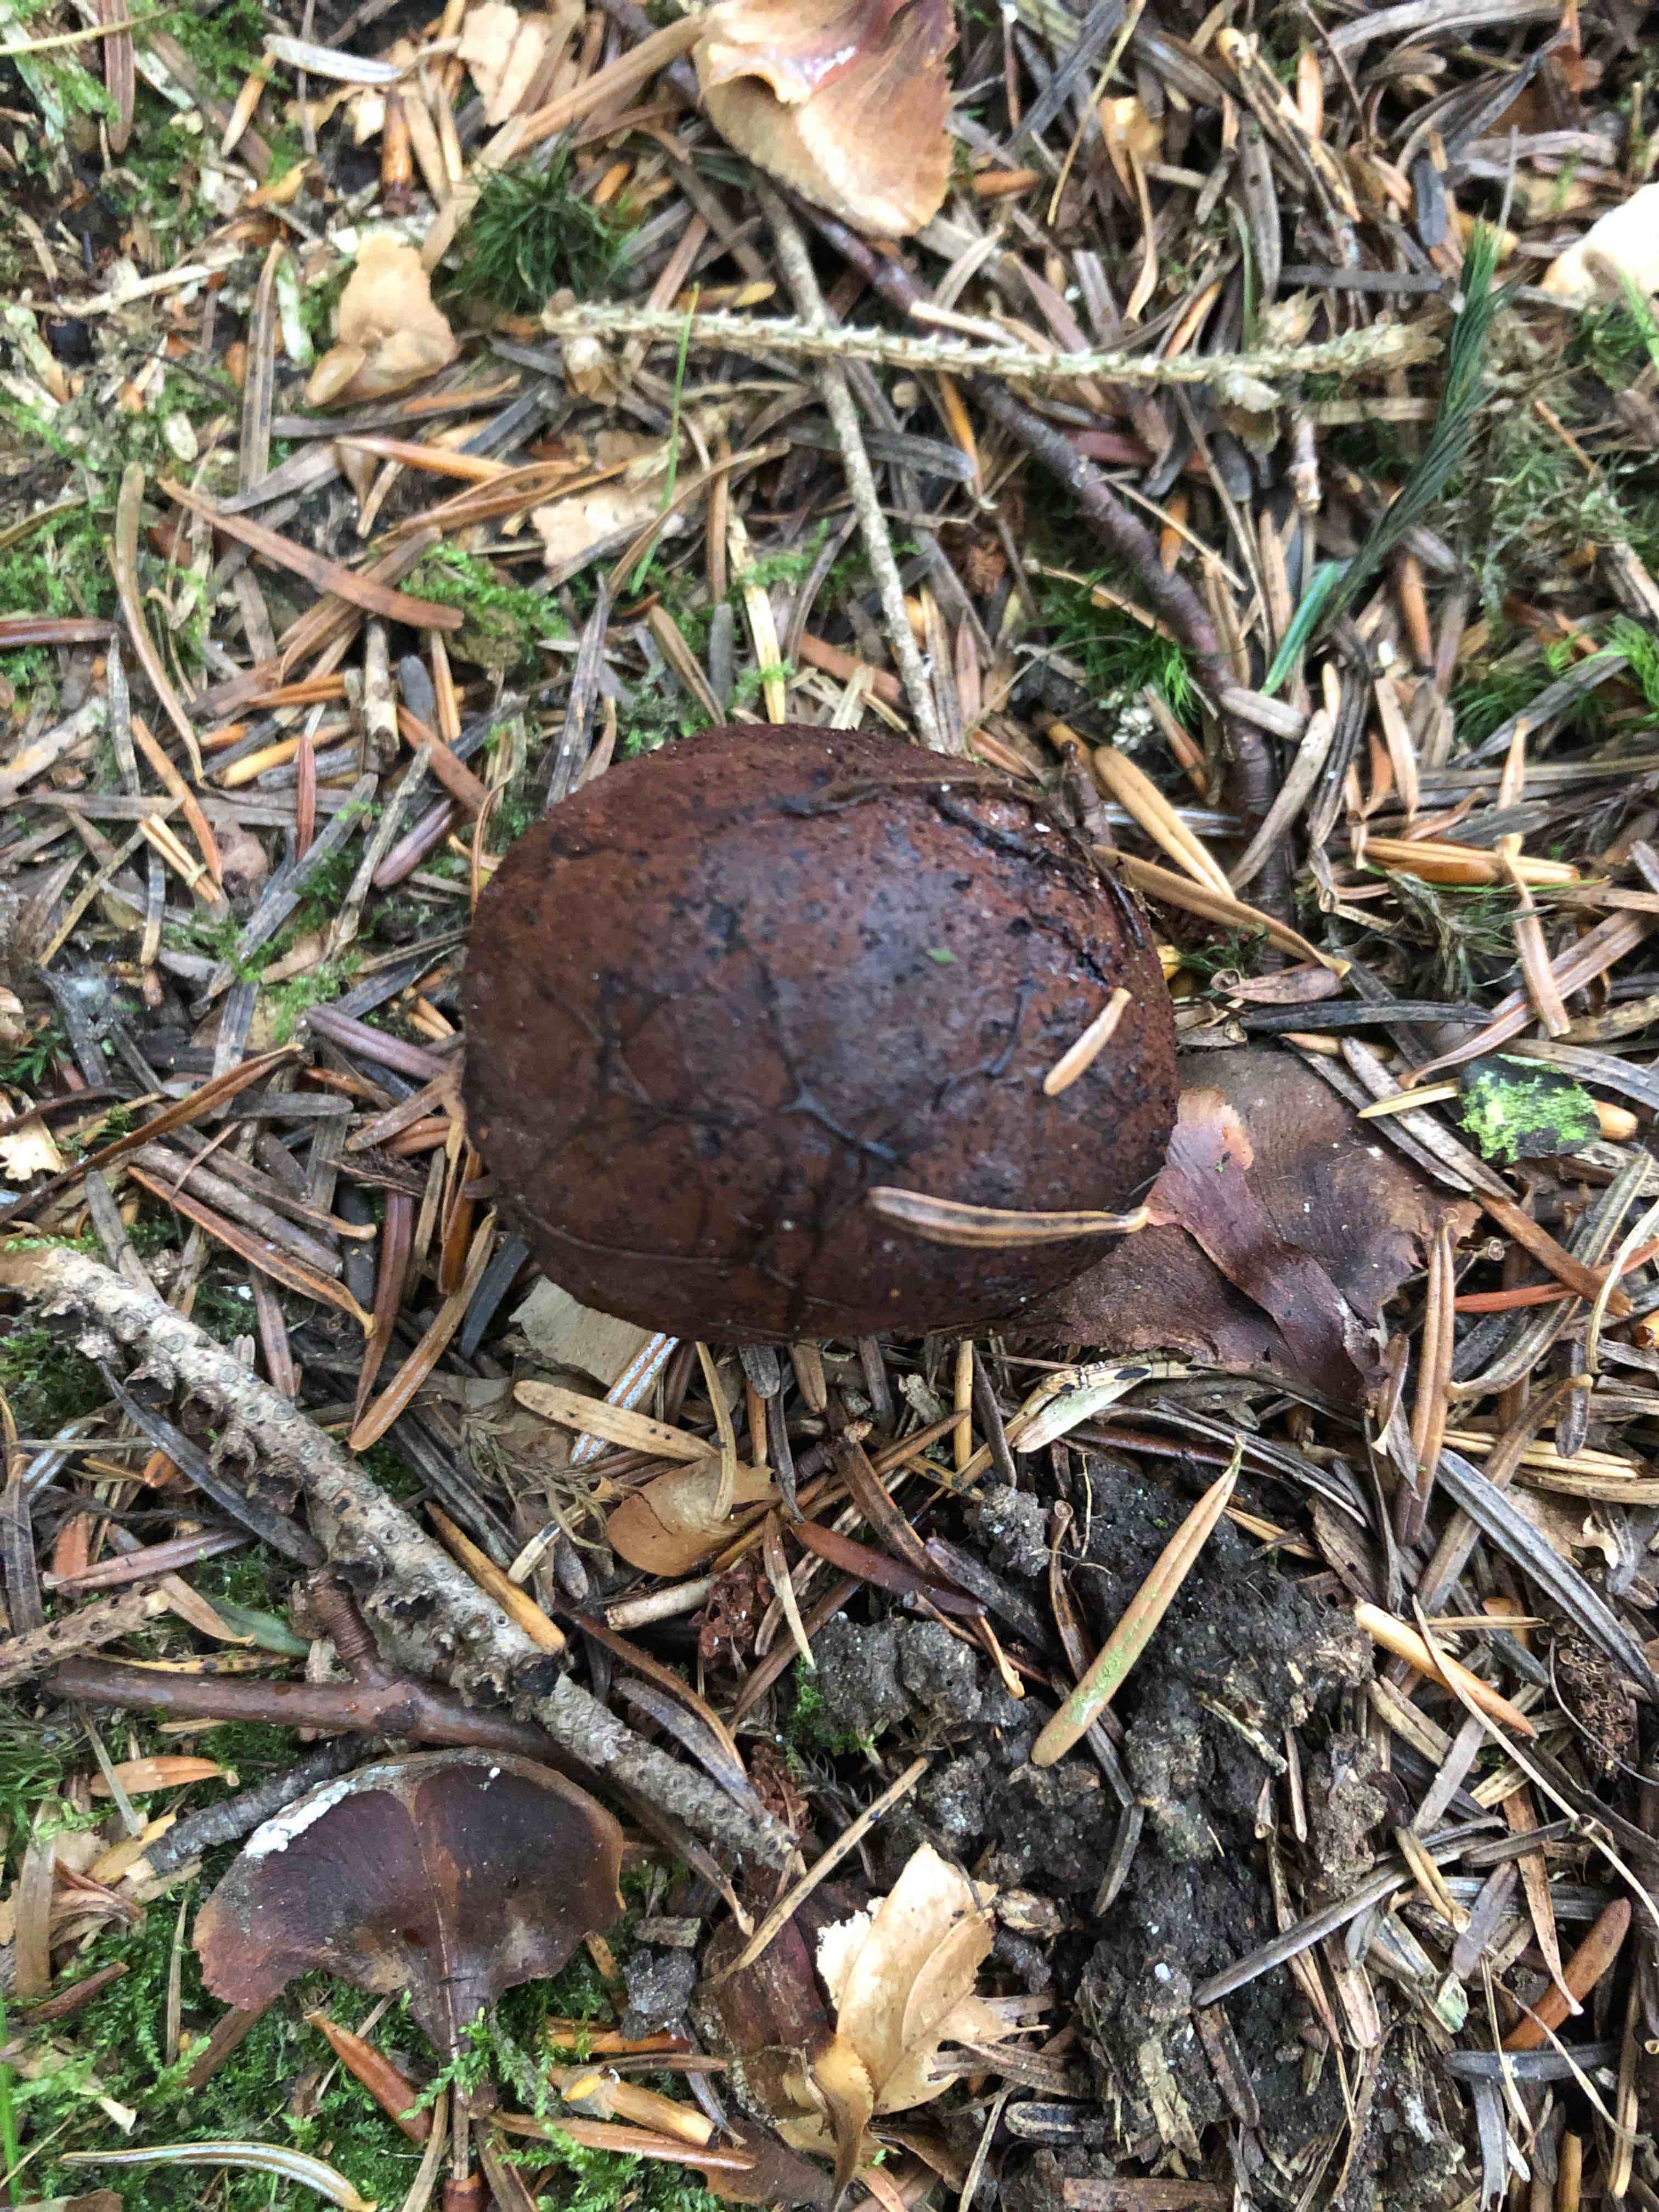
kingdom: Fungi
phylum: Basidiomycota
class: Agaricomycetes
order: Boletales
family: Paxillaceae
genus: Melanogaster
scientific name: Melanogaster tuberiformis
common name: stor slimtrøffel
